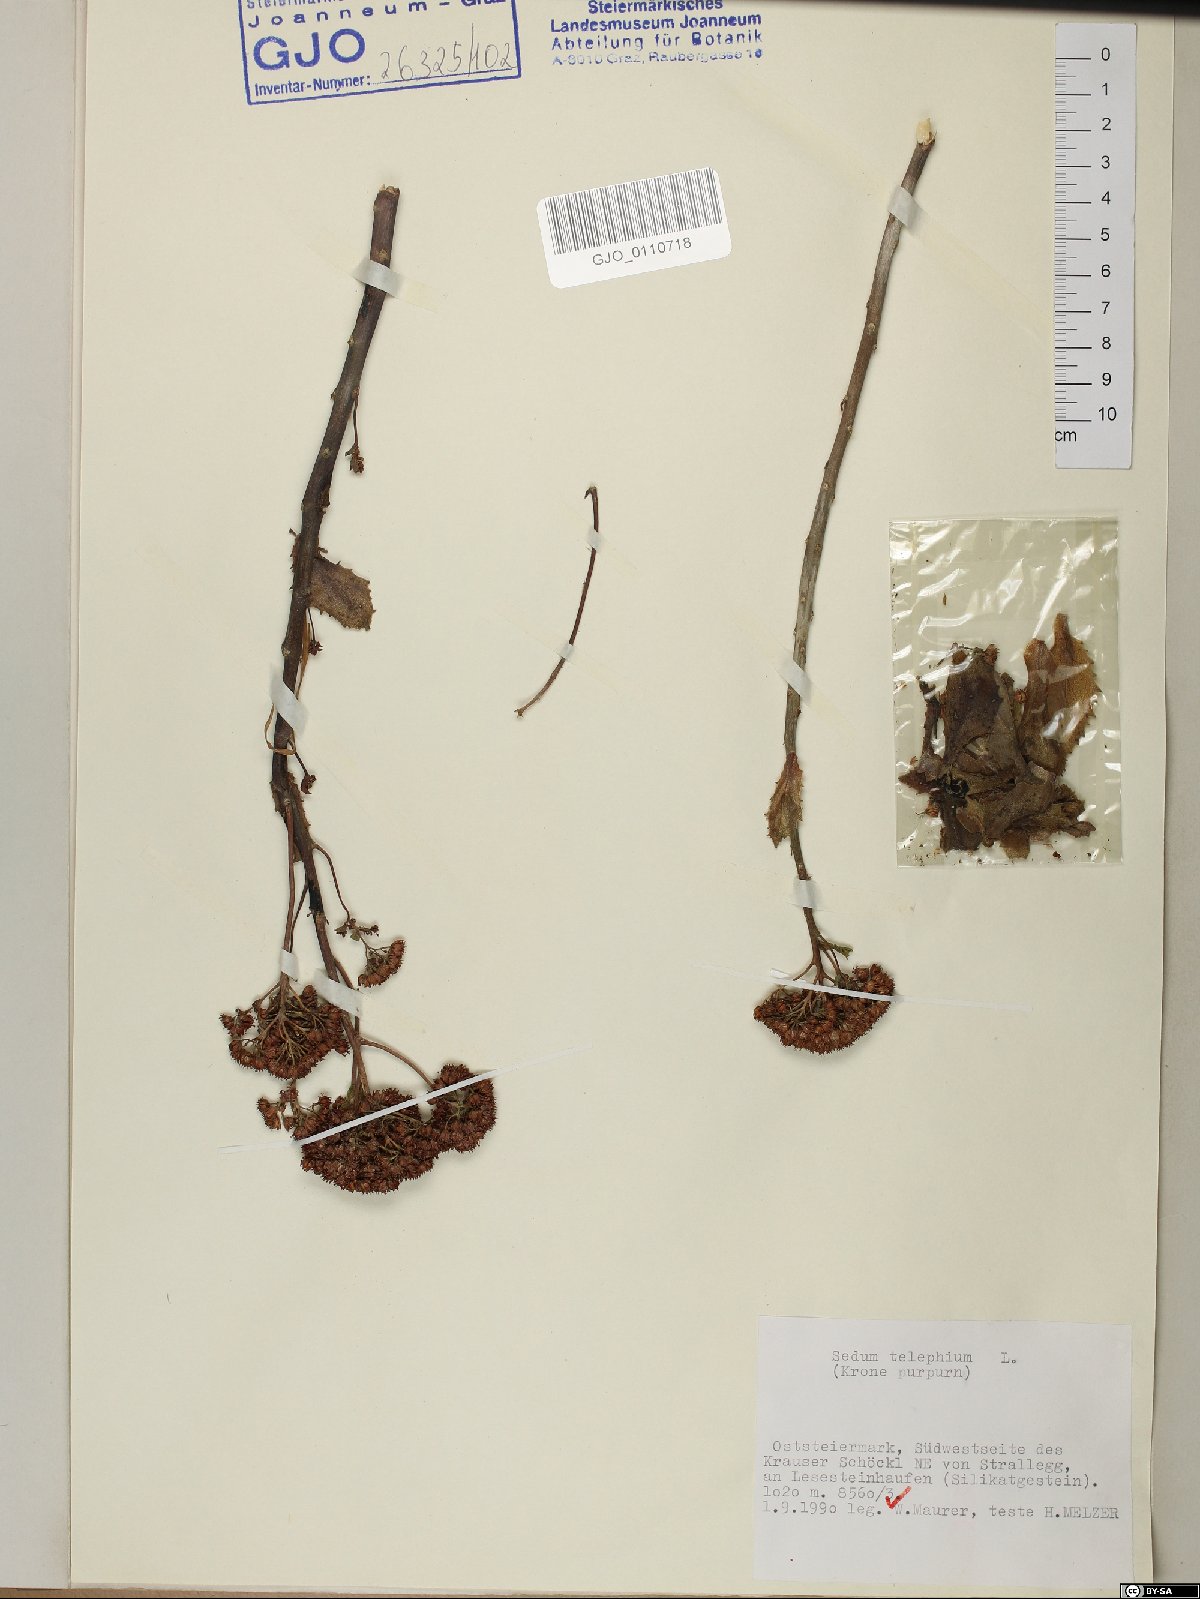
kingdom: Plantae
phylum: Tracheophyta
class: Magnoliopsida
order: Saxifragales
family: Crassulaceae
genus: Hylotelephium
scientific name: Hylotelephium telephium
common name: Live-forever
